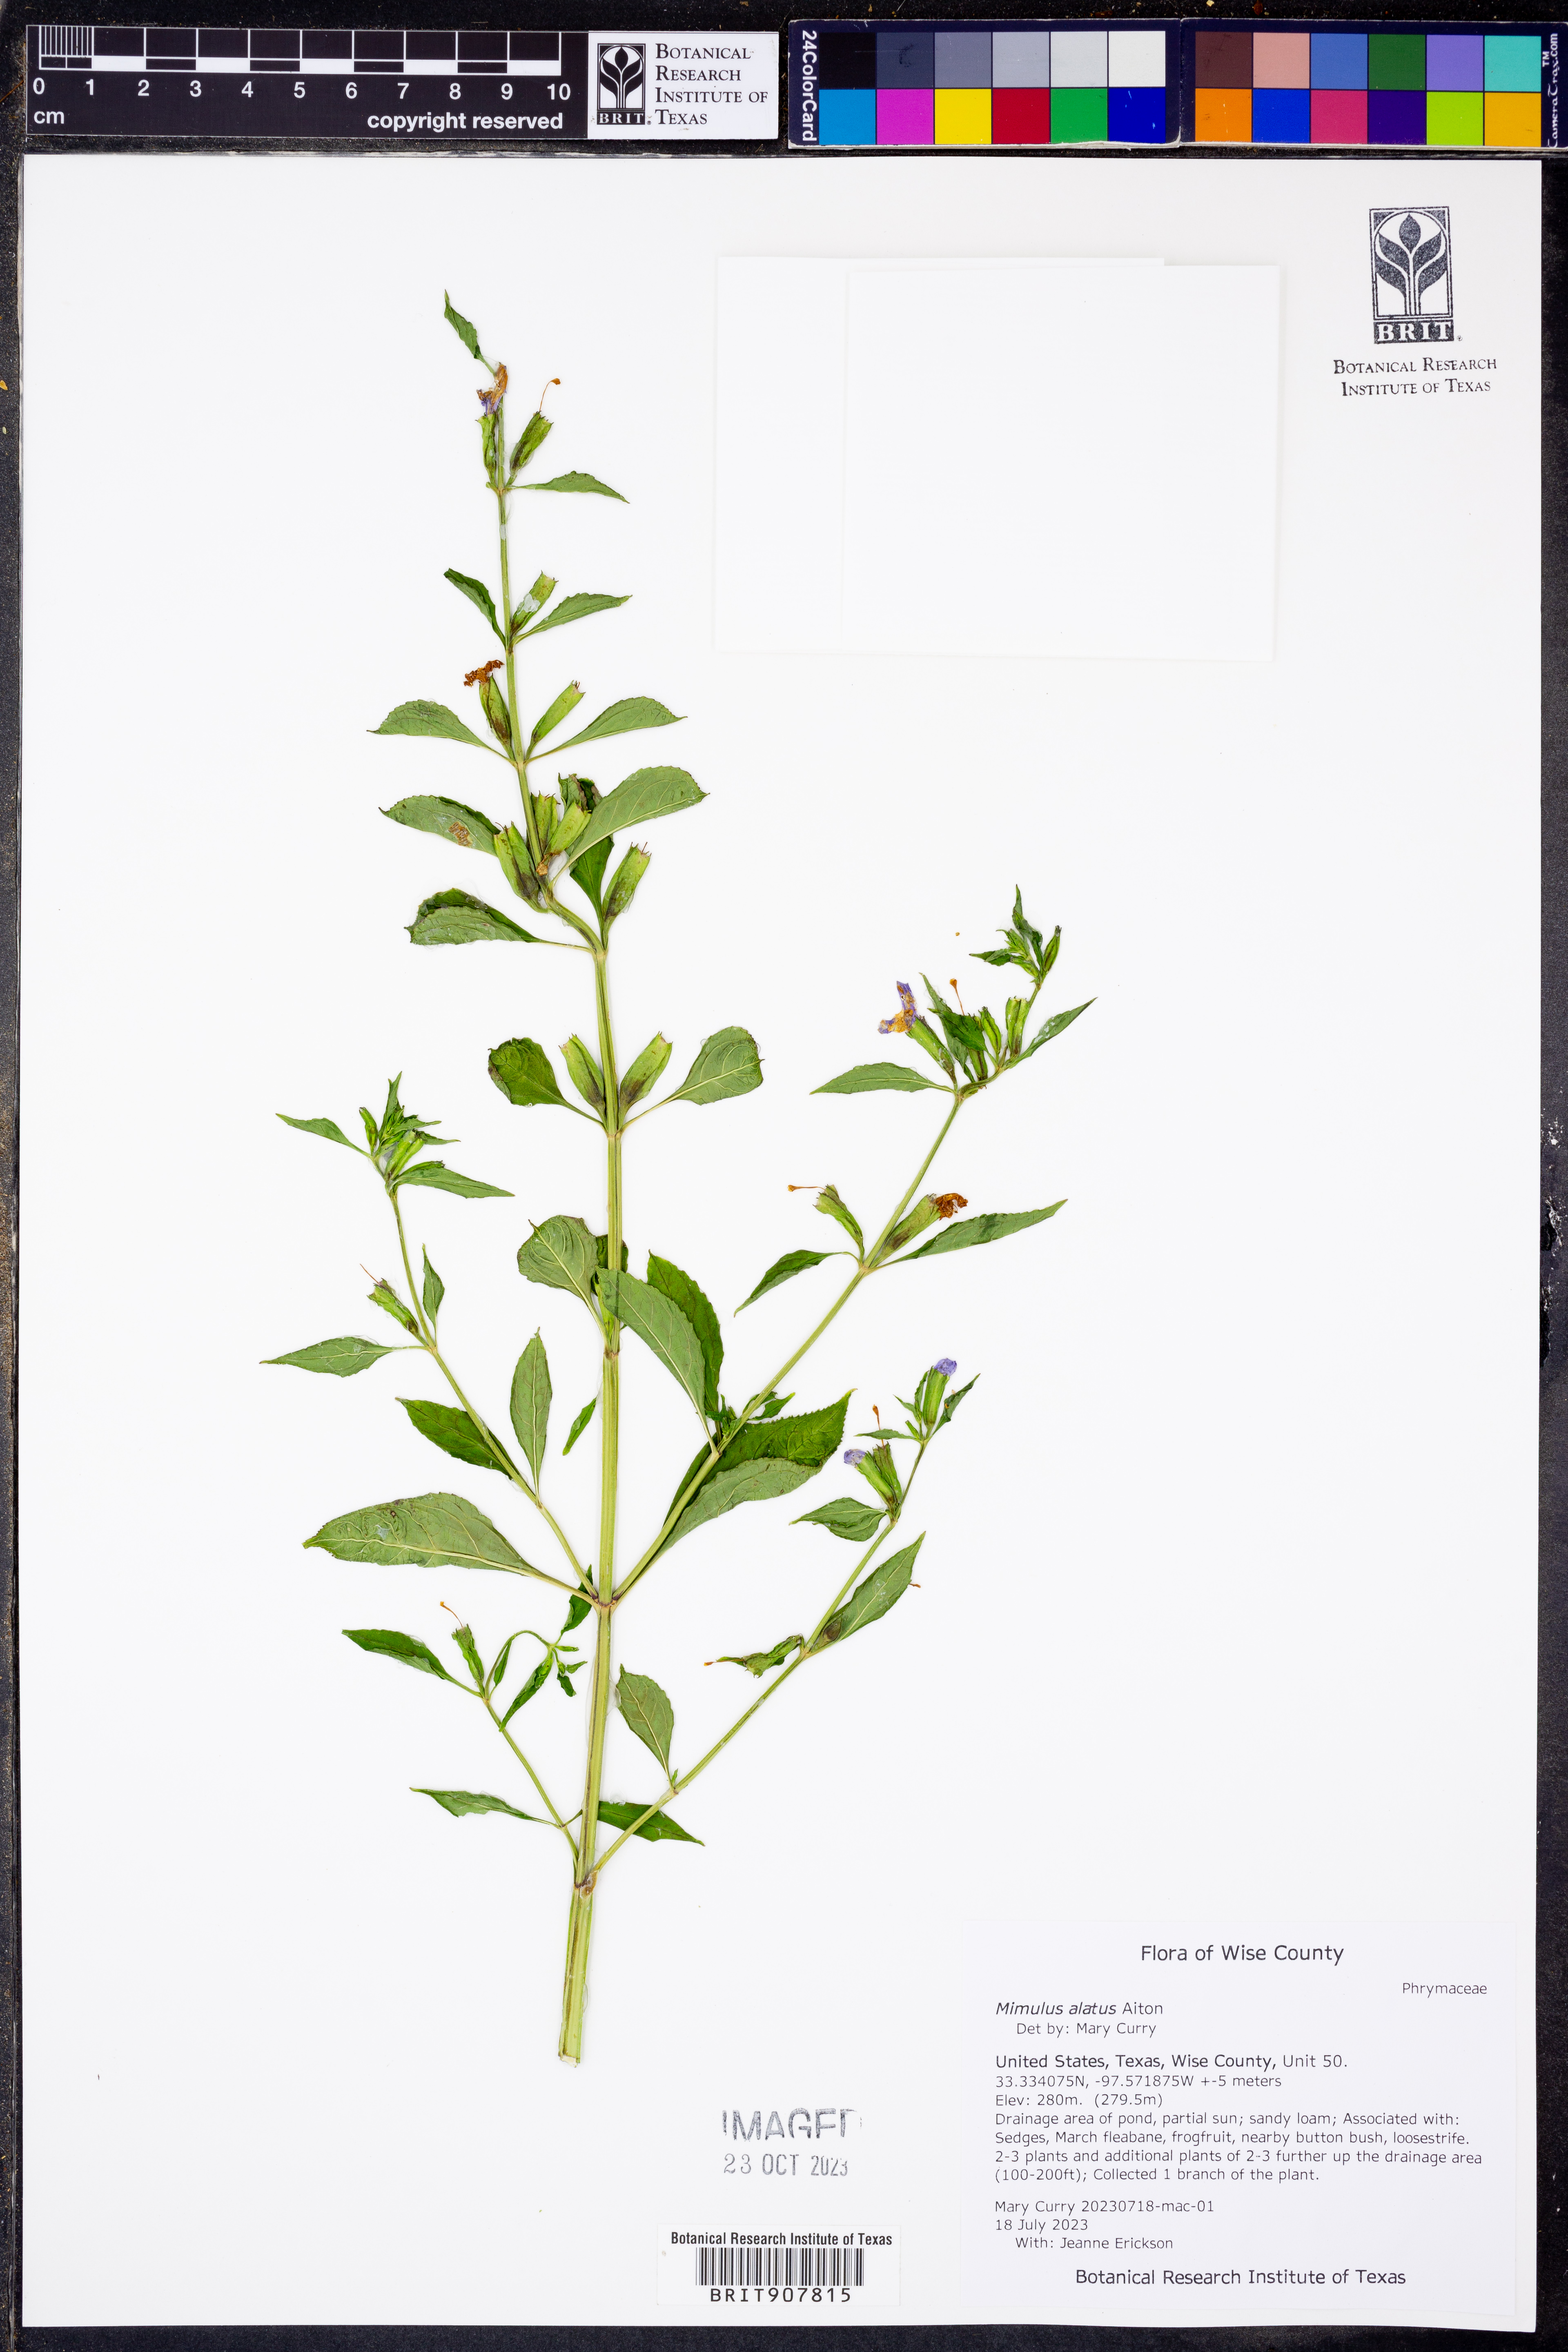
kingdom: Plantae
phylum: Tracheophyta
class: Magnoliopsida
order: Lamiales
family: Phrymaceae
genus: Mimulus
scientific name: Mimulus alatus
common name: Sharp-wing monkey-flower
